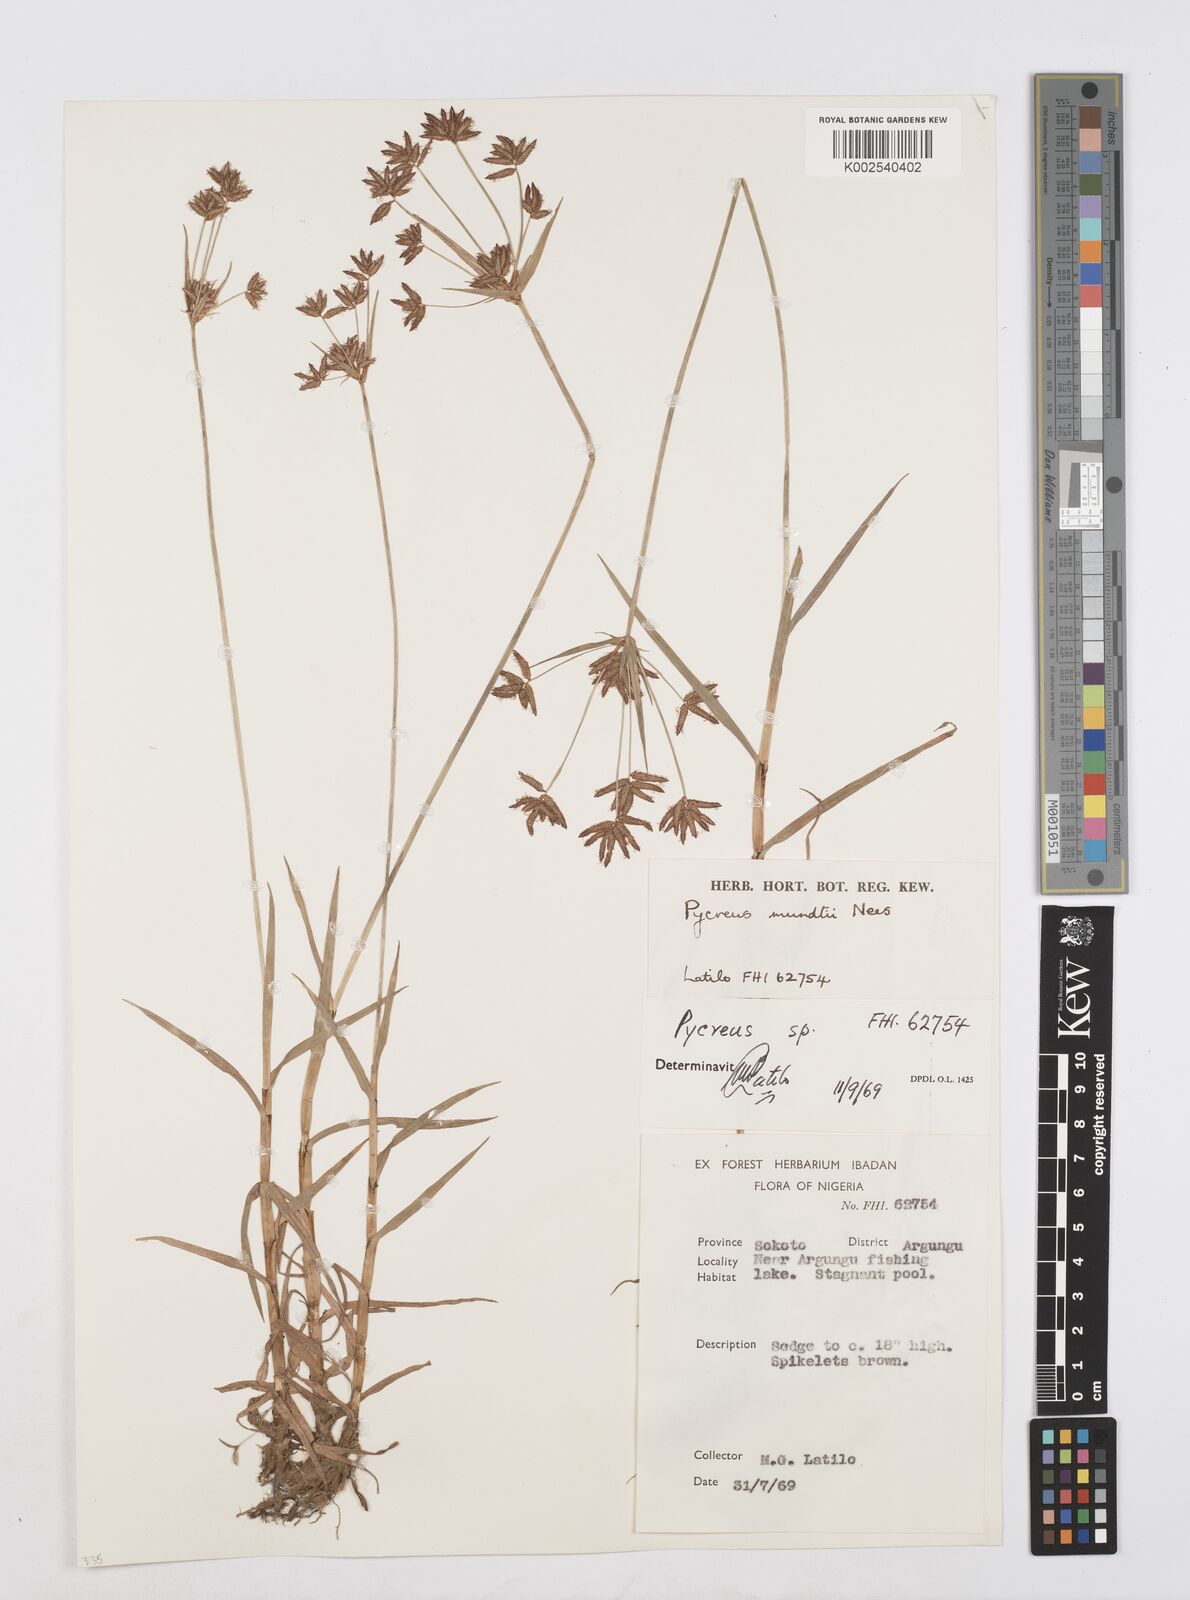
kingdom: Plantae
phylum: Tracheophyta
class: Liliopsida
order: Poales
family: Cyperaceae
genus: Cyperus
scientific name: Cyperus mundii
